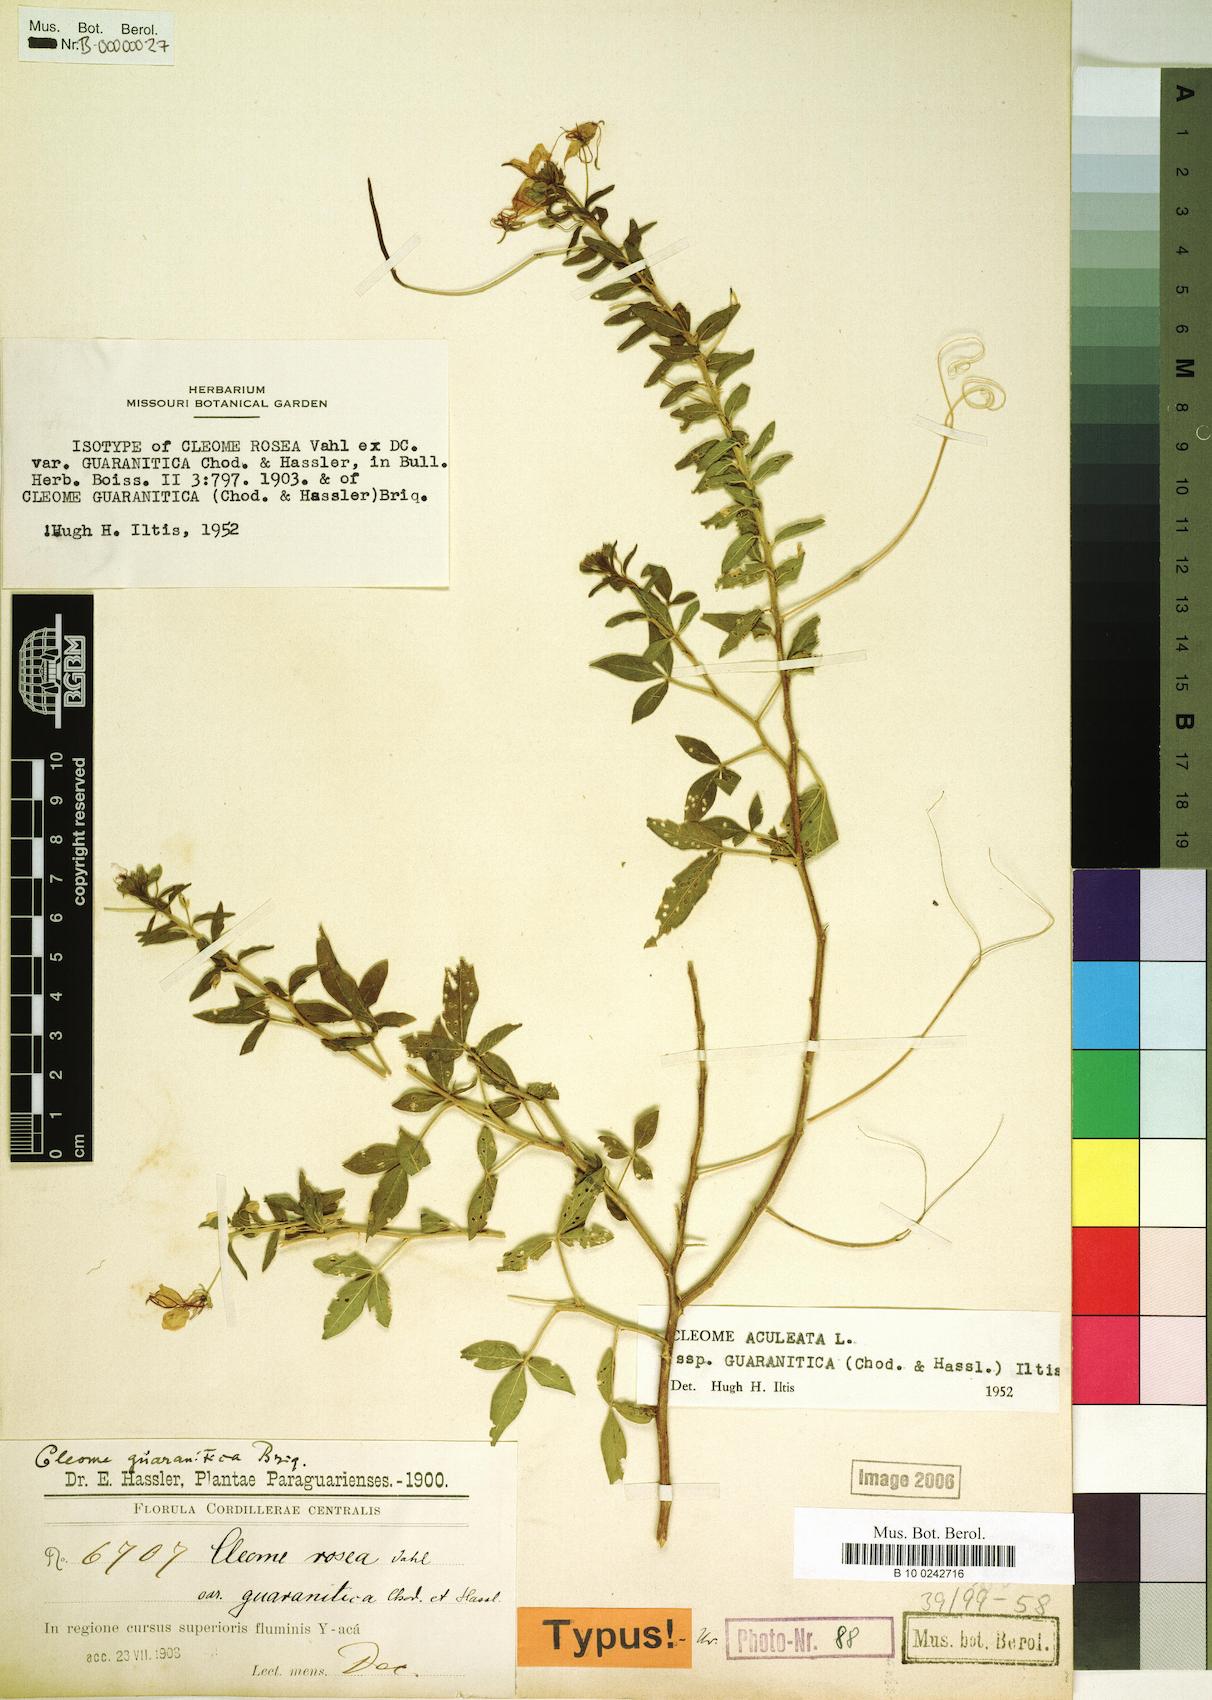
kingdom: Plantae
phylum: Tracheophyta
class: Magnoliopsida
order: Brassicales
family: Cleomaceae
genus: Tarenaya
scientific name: Tarenaya aculeata
